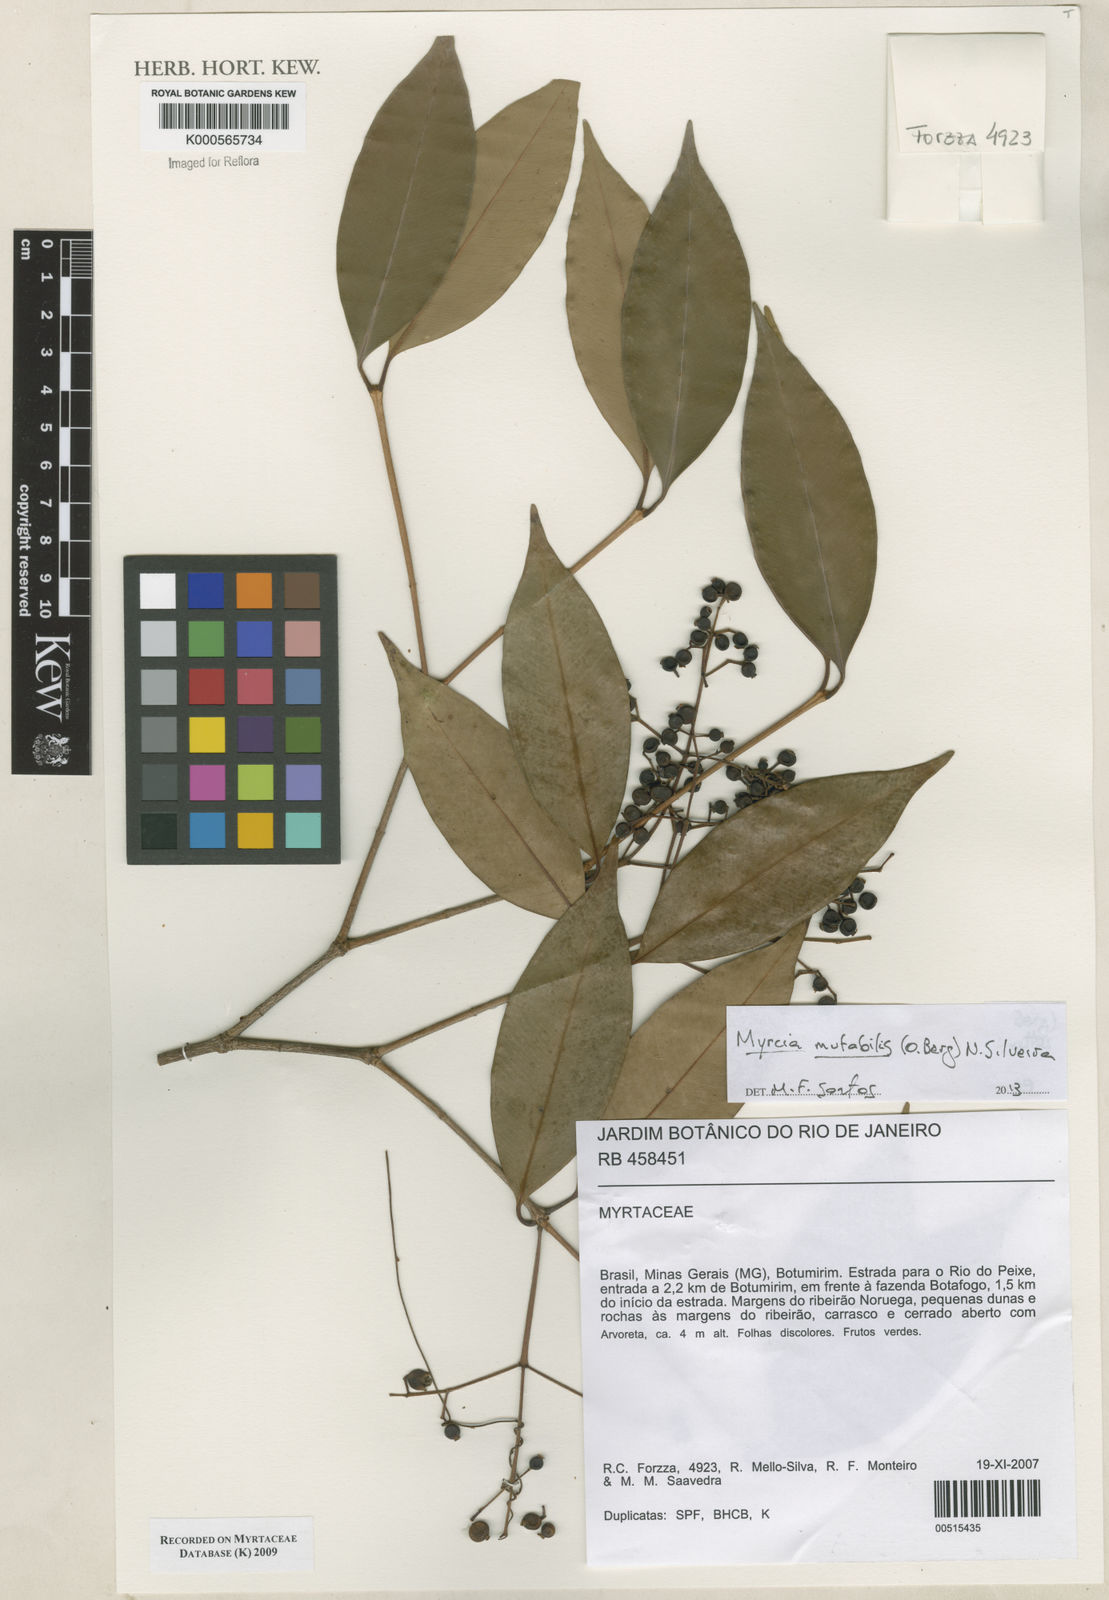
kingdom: Plantae
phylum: Tracheophyta
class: Magnoliopsida
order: Myrtales
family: Myrtaceae
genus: Myrcia
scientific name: Myrcia calyptranthoides
